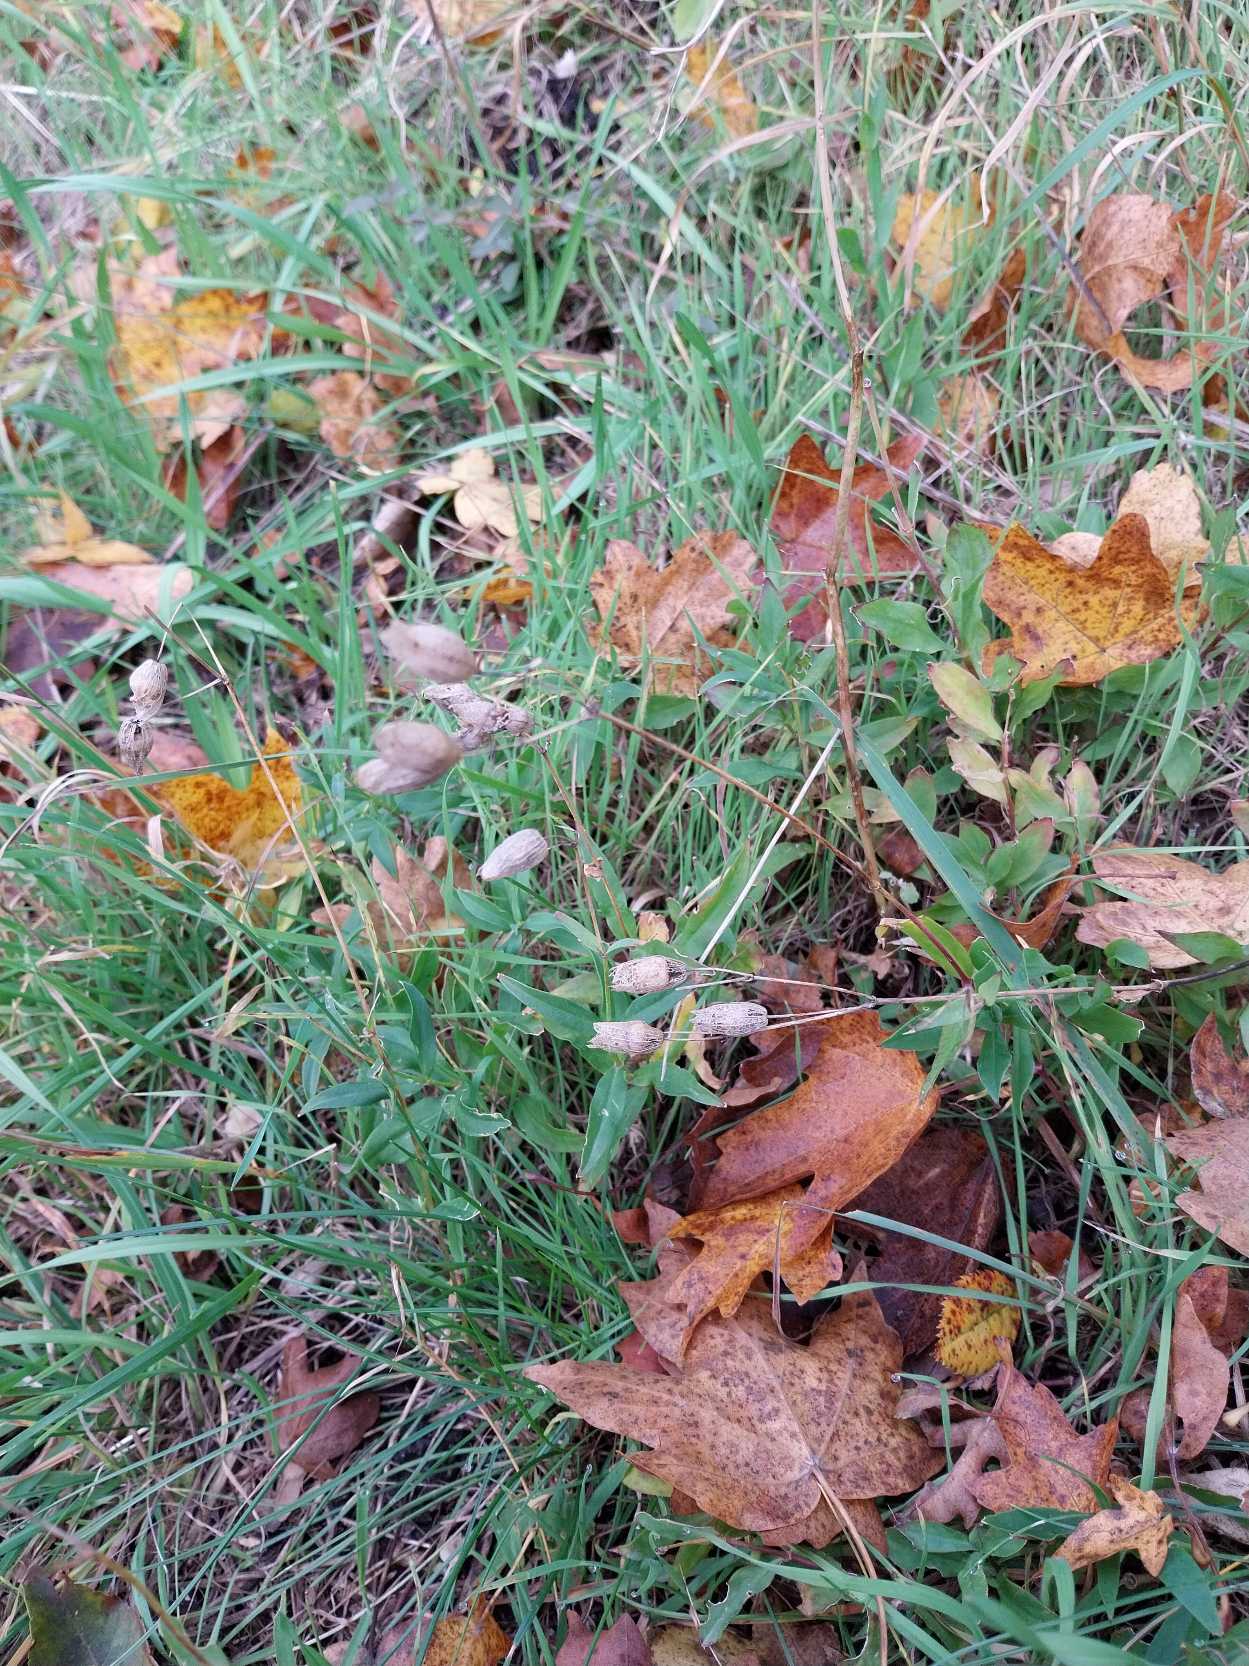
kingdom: Plantae
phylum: Tracheophyta
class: Magnoliopsida
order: Caryophyllales
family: Caryophyllaceae
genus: Silene
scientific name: Silene vulgaris
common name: Blæresmælde
